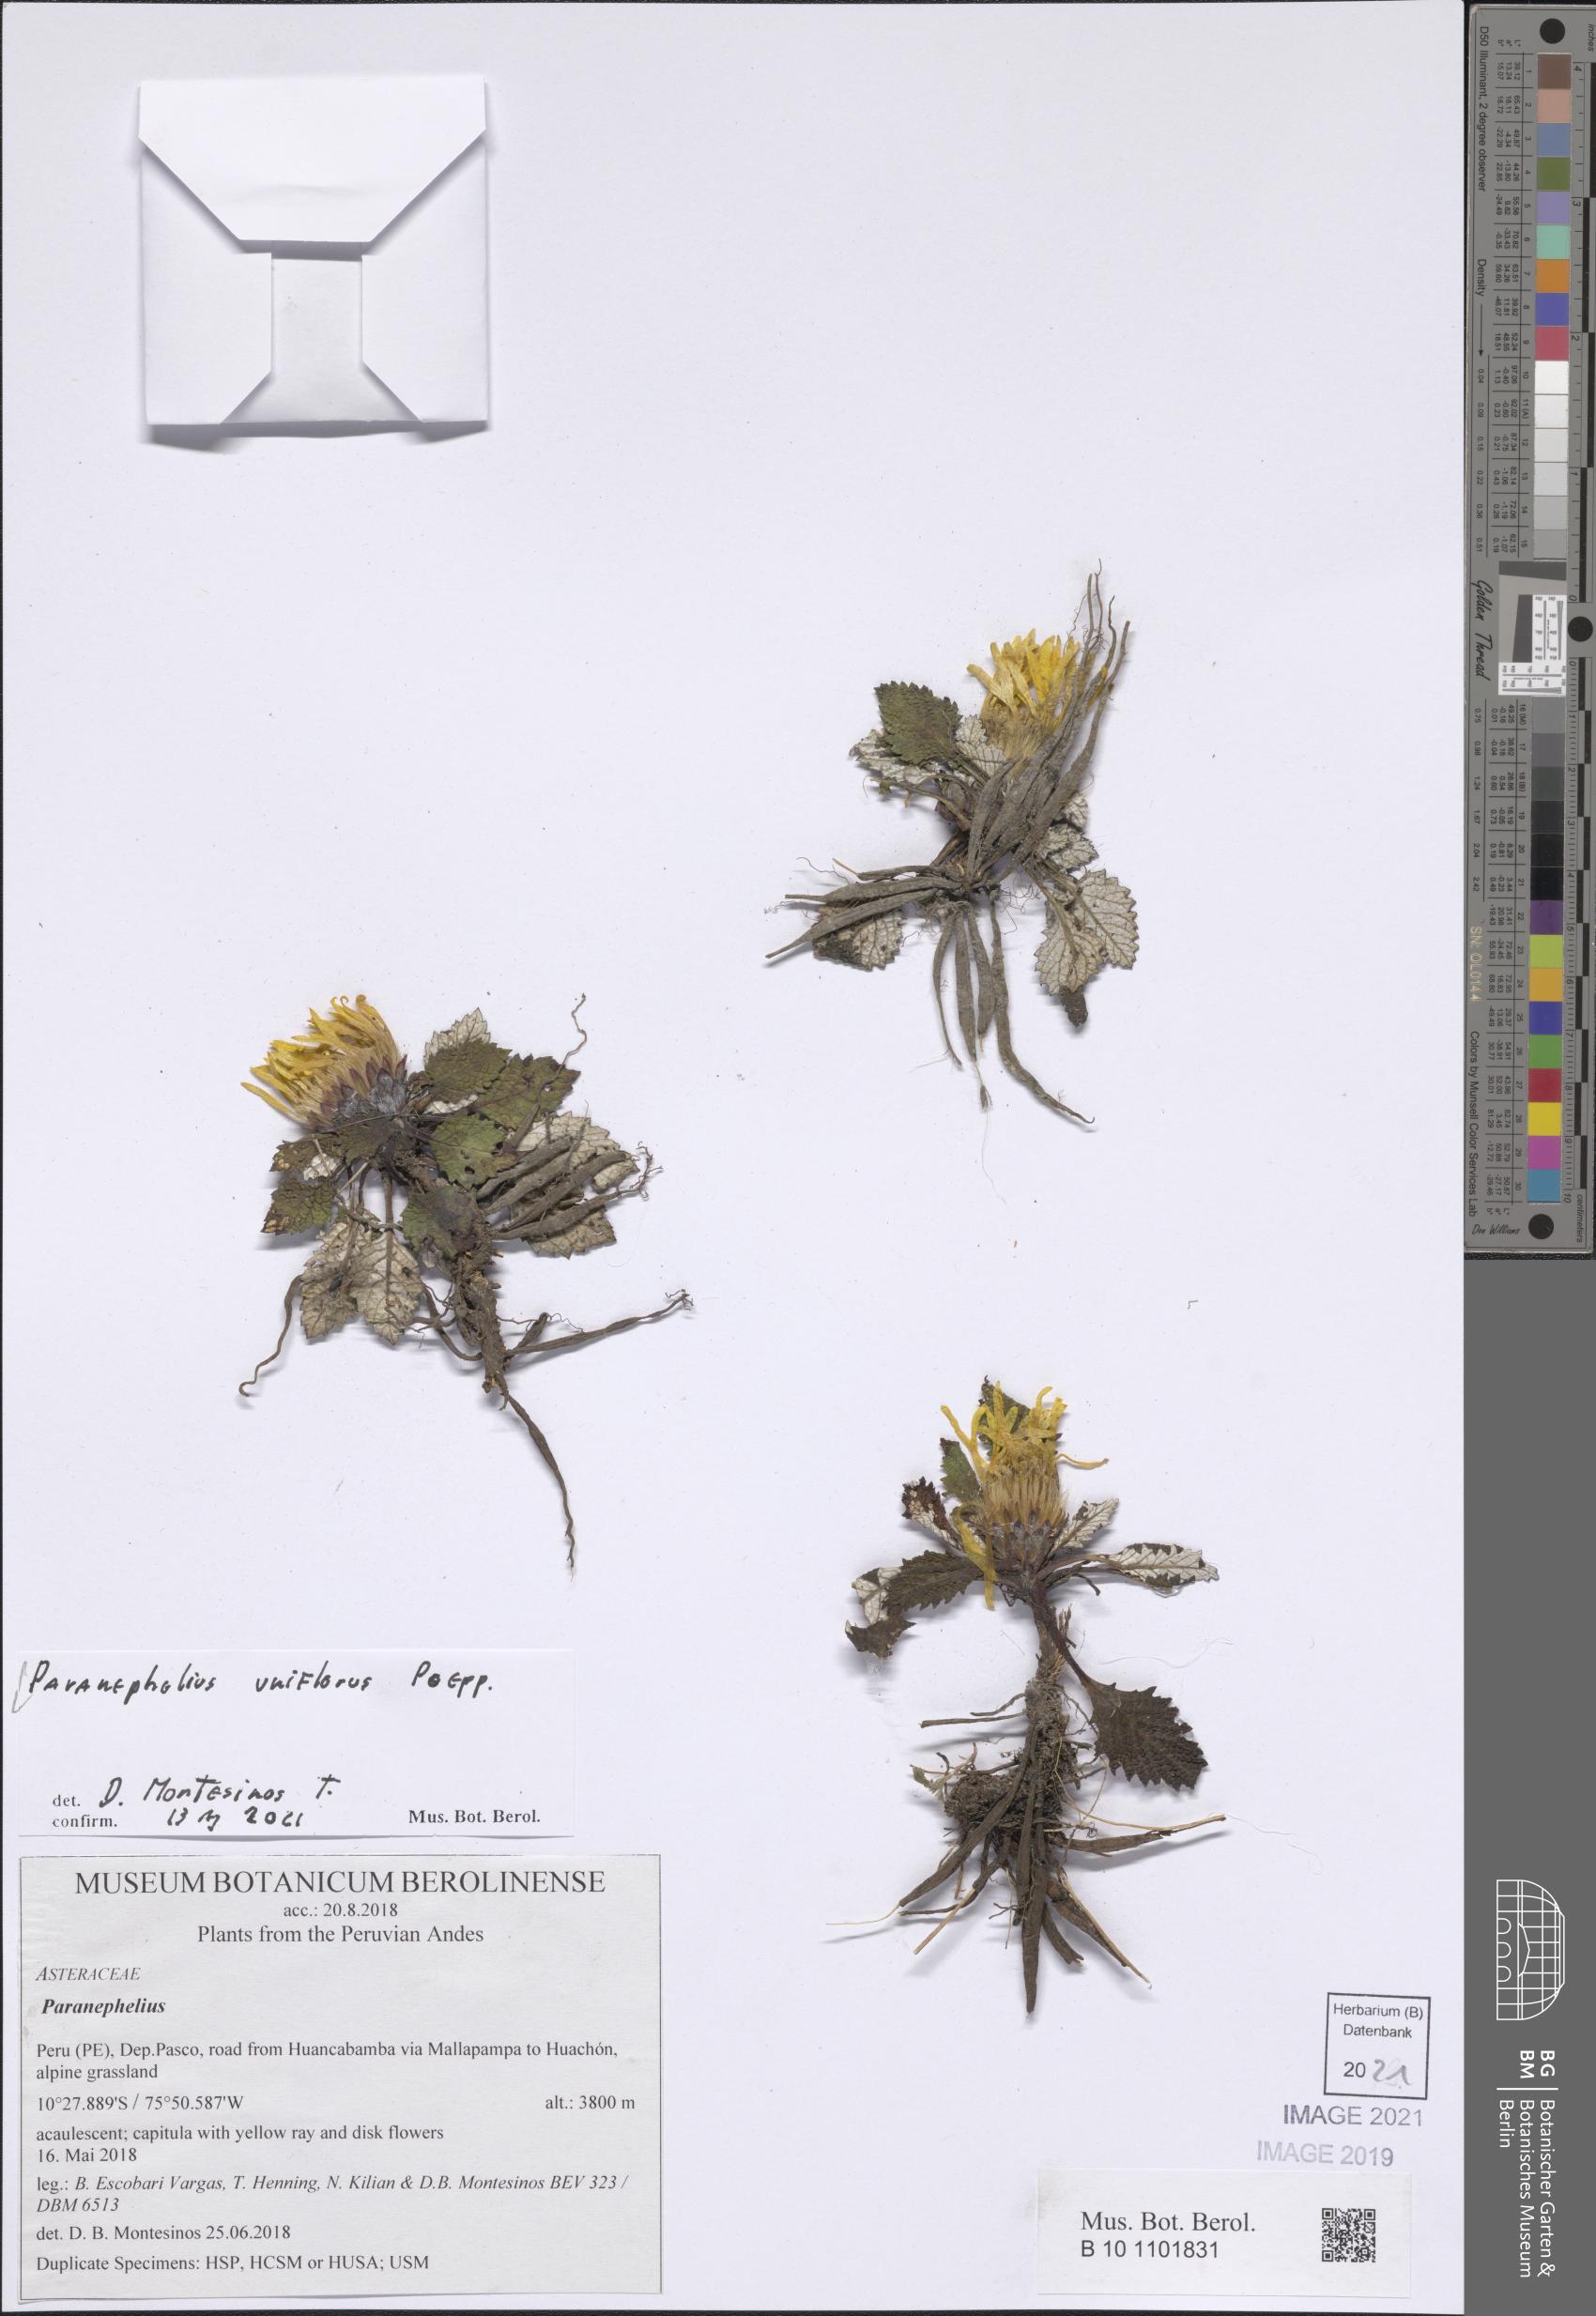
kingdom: Plantae
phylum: Tracheophyta
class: Magnoliopsida
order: Asterales
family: Asteraceae
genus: Paranephelius
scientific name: Paranephelius uniflorus
